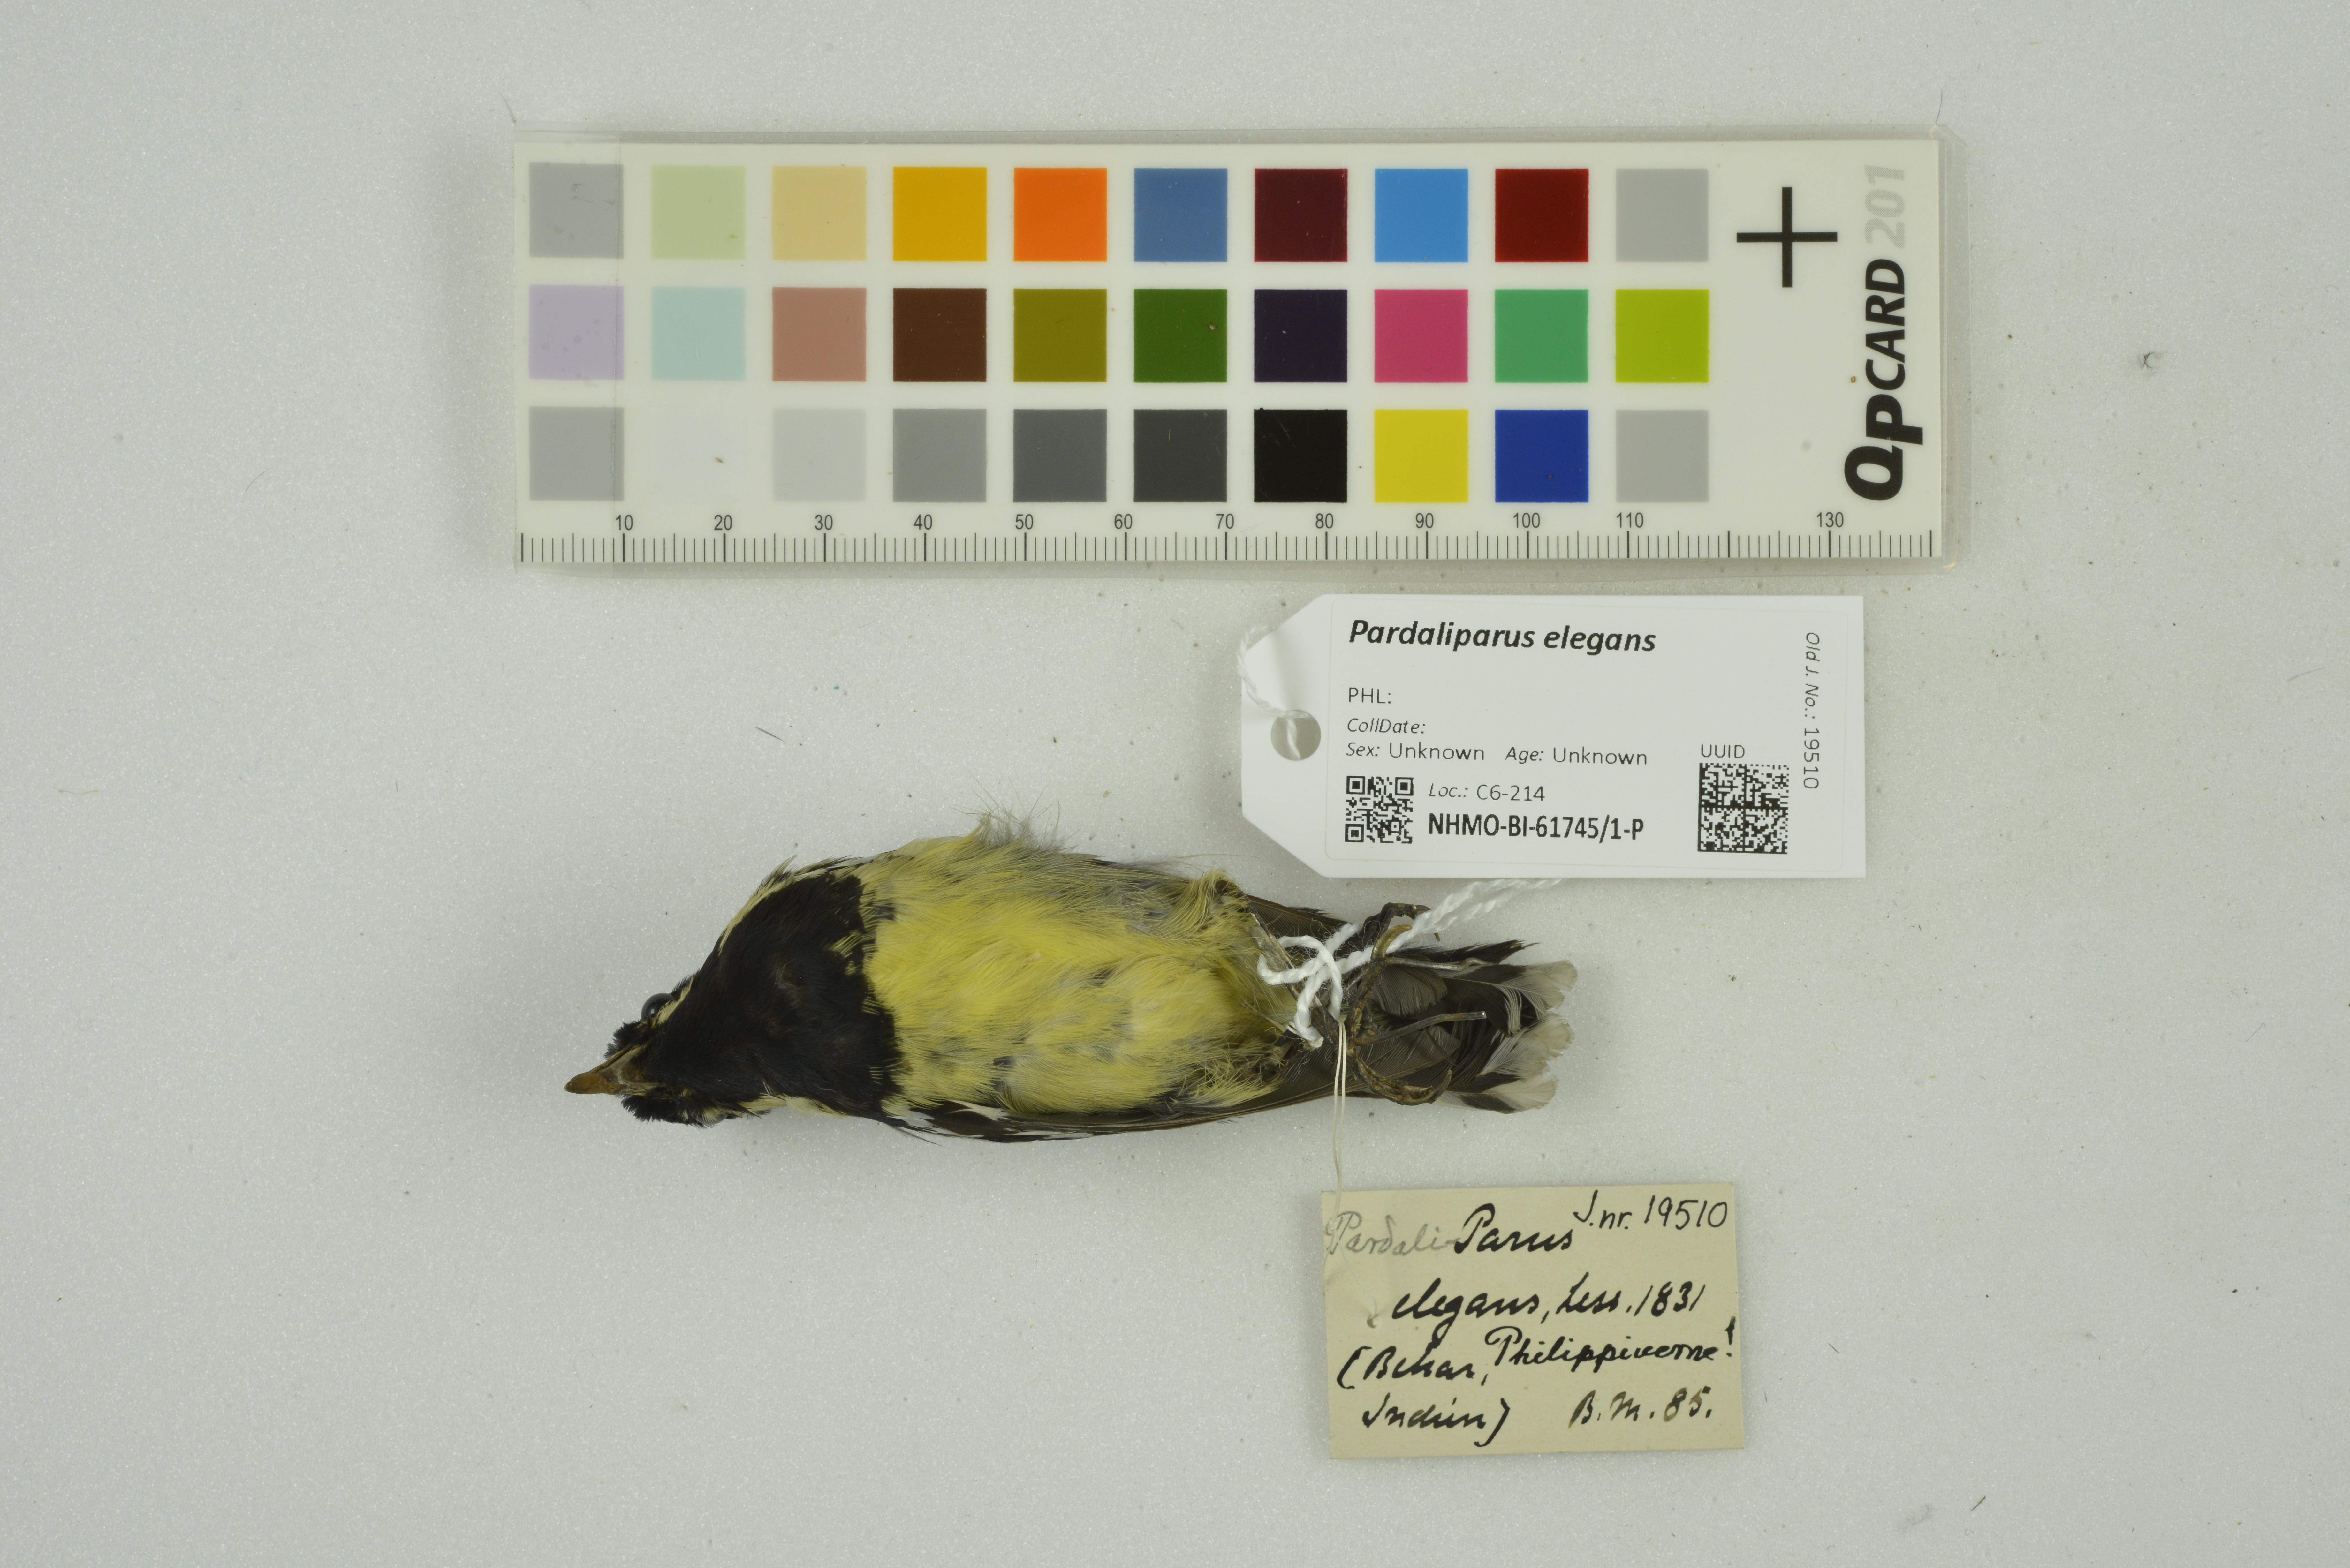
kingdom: Animalia
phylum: Chordata
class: Aves
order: Passeriformes
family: Paridae
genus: Periparus
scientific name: Periparus elegans
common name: Elegant tit
